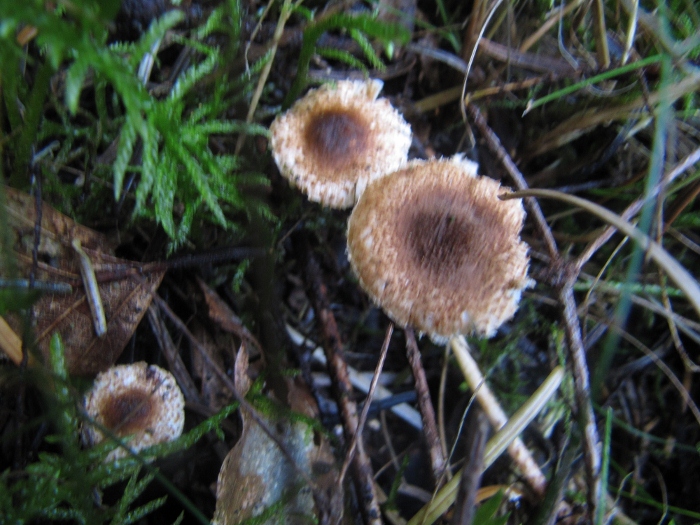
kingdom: Fungi
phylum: Basidiomycota
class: Agaricomycetes
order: Agaricales
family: Agaricaceae
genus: Lepiota
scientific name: Lepiota castanea
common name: kastaniebrun parasolhat
